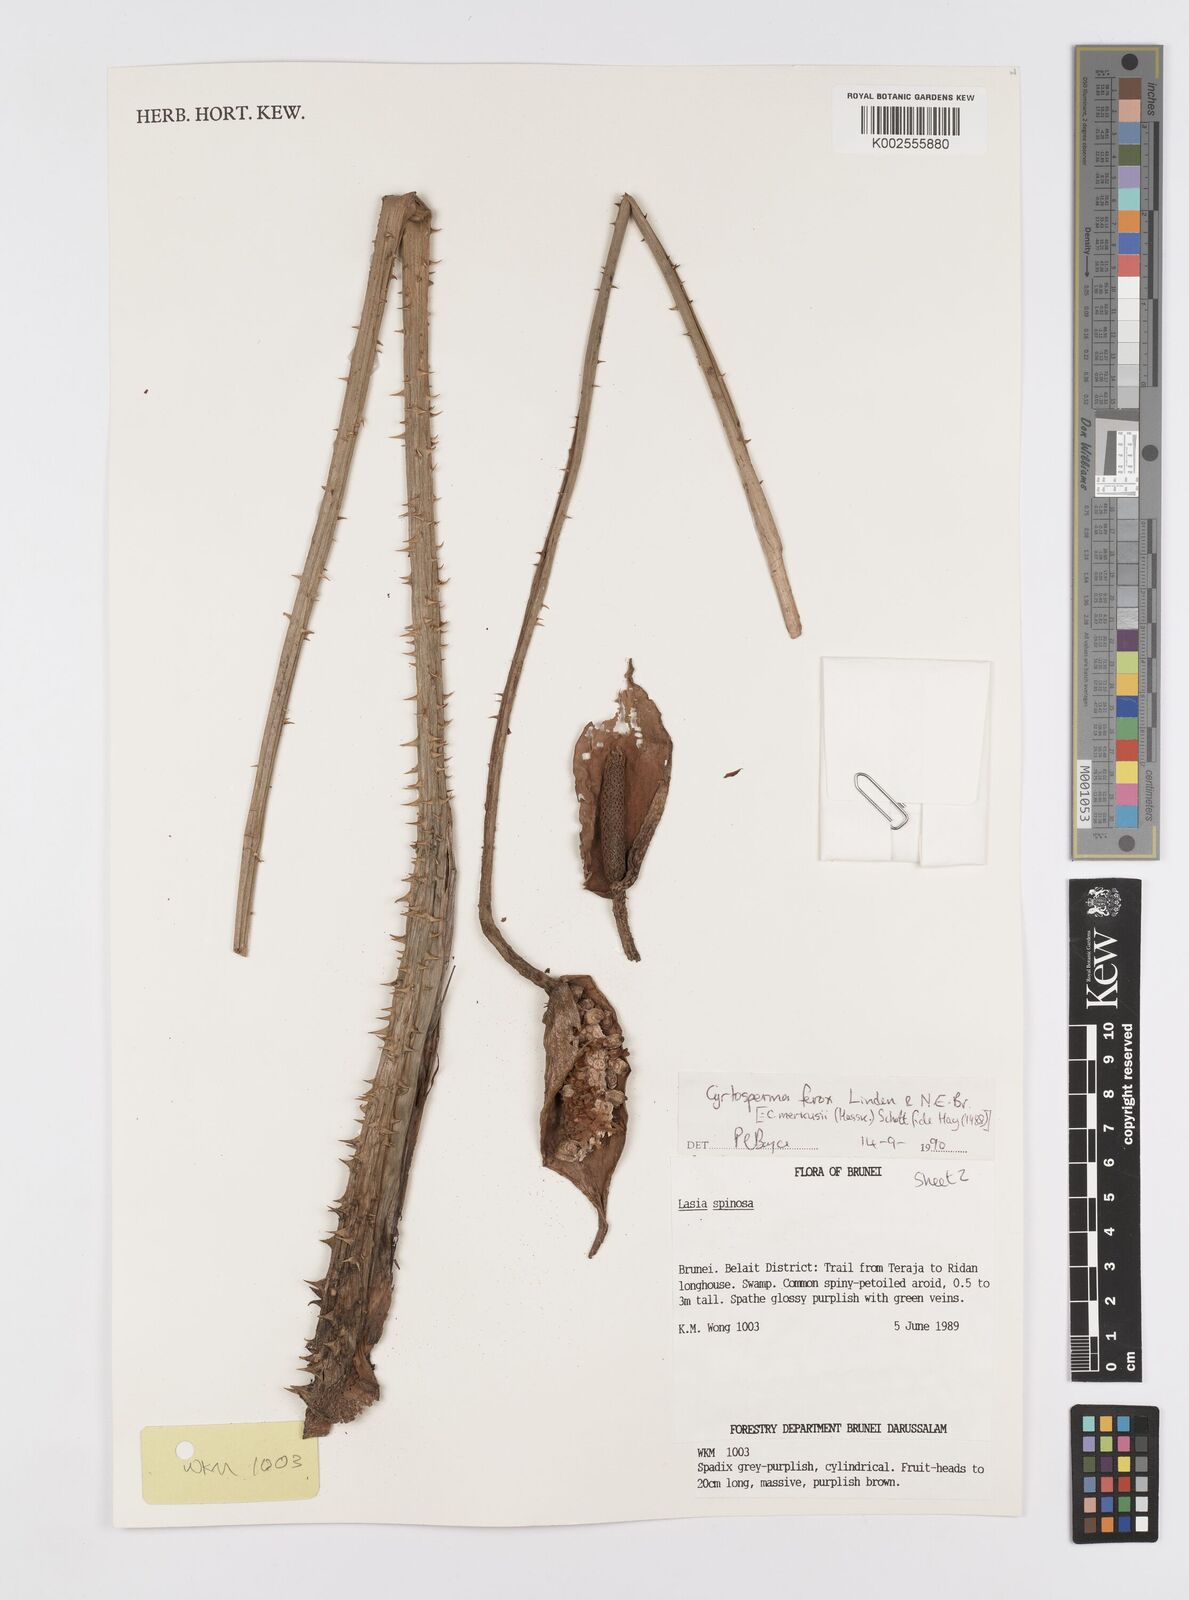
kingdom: Plantae
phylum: Tracheophyta
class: Liliopsida
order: Alismatales
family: Araceae
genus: Cyrtosperma
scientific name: Cyrtosperma merkusii
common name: Giant swamp-taro
